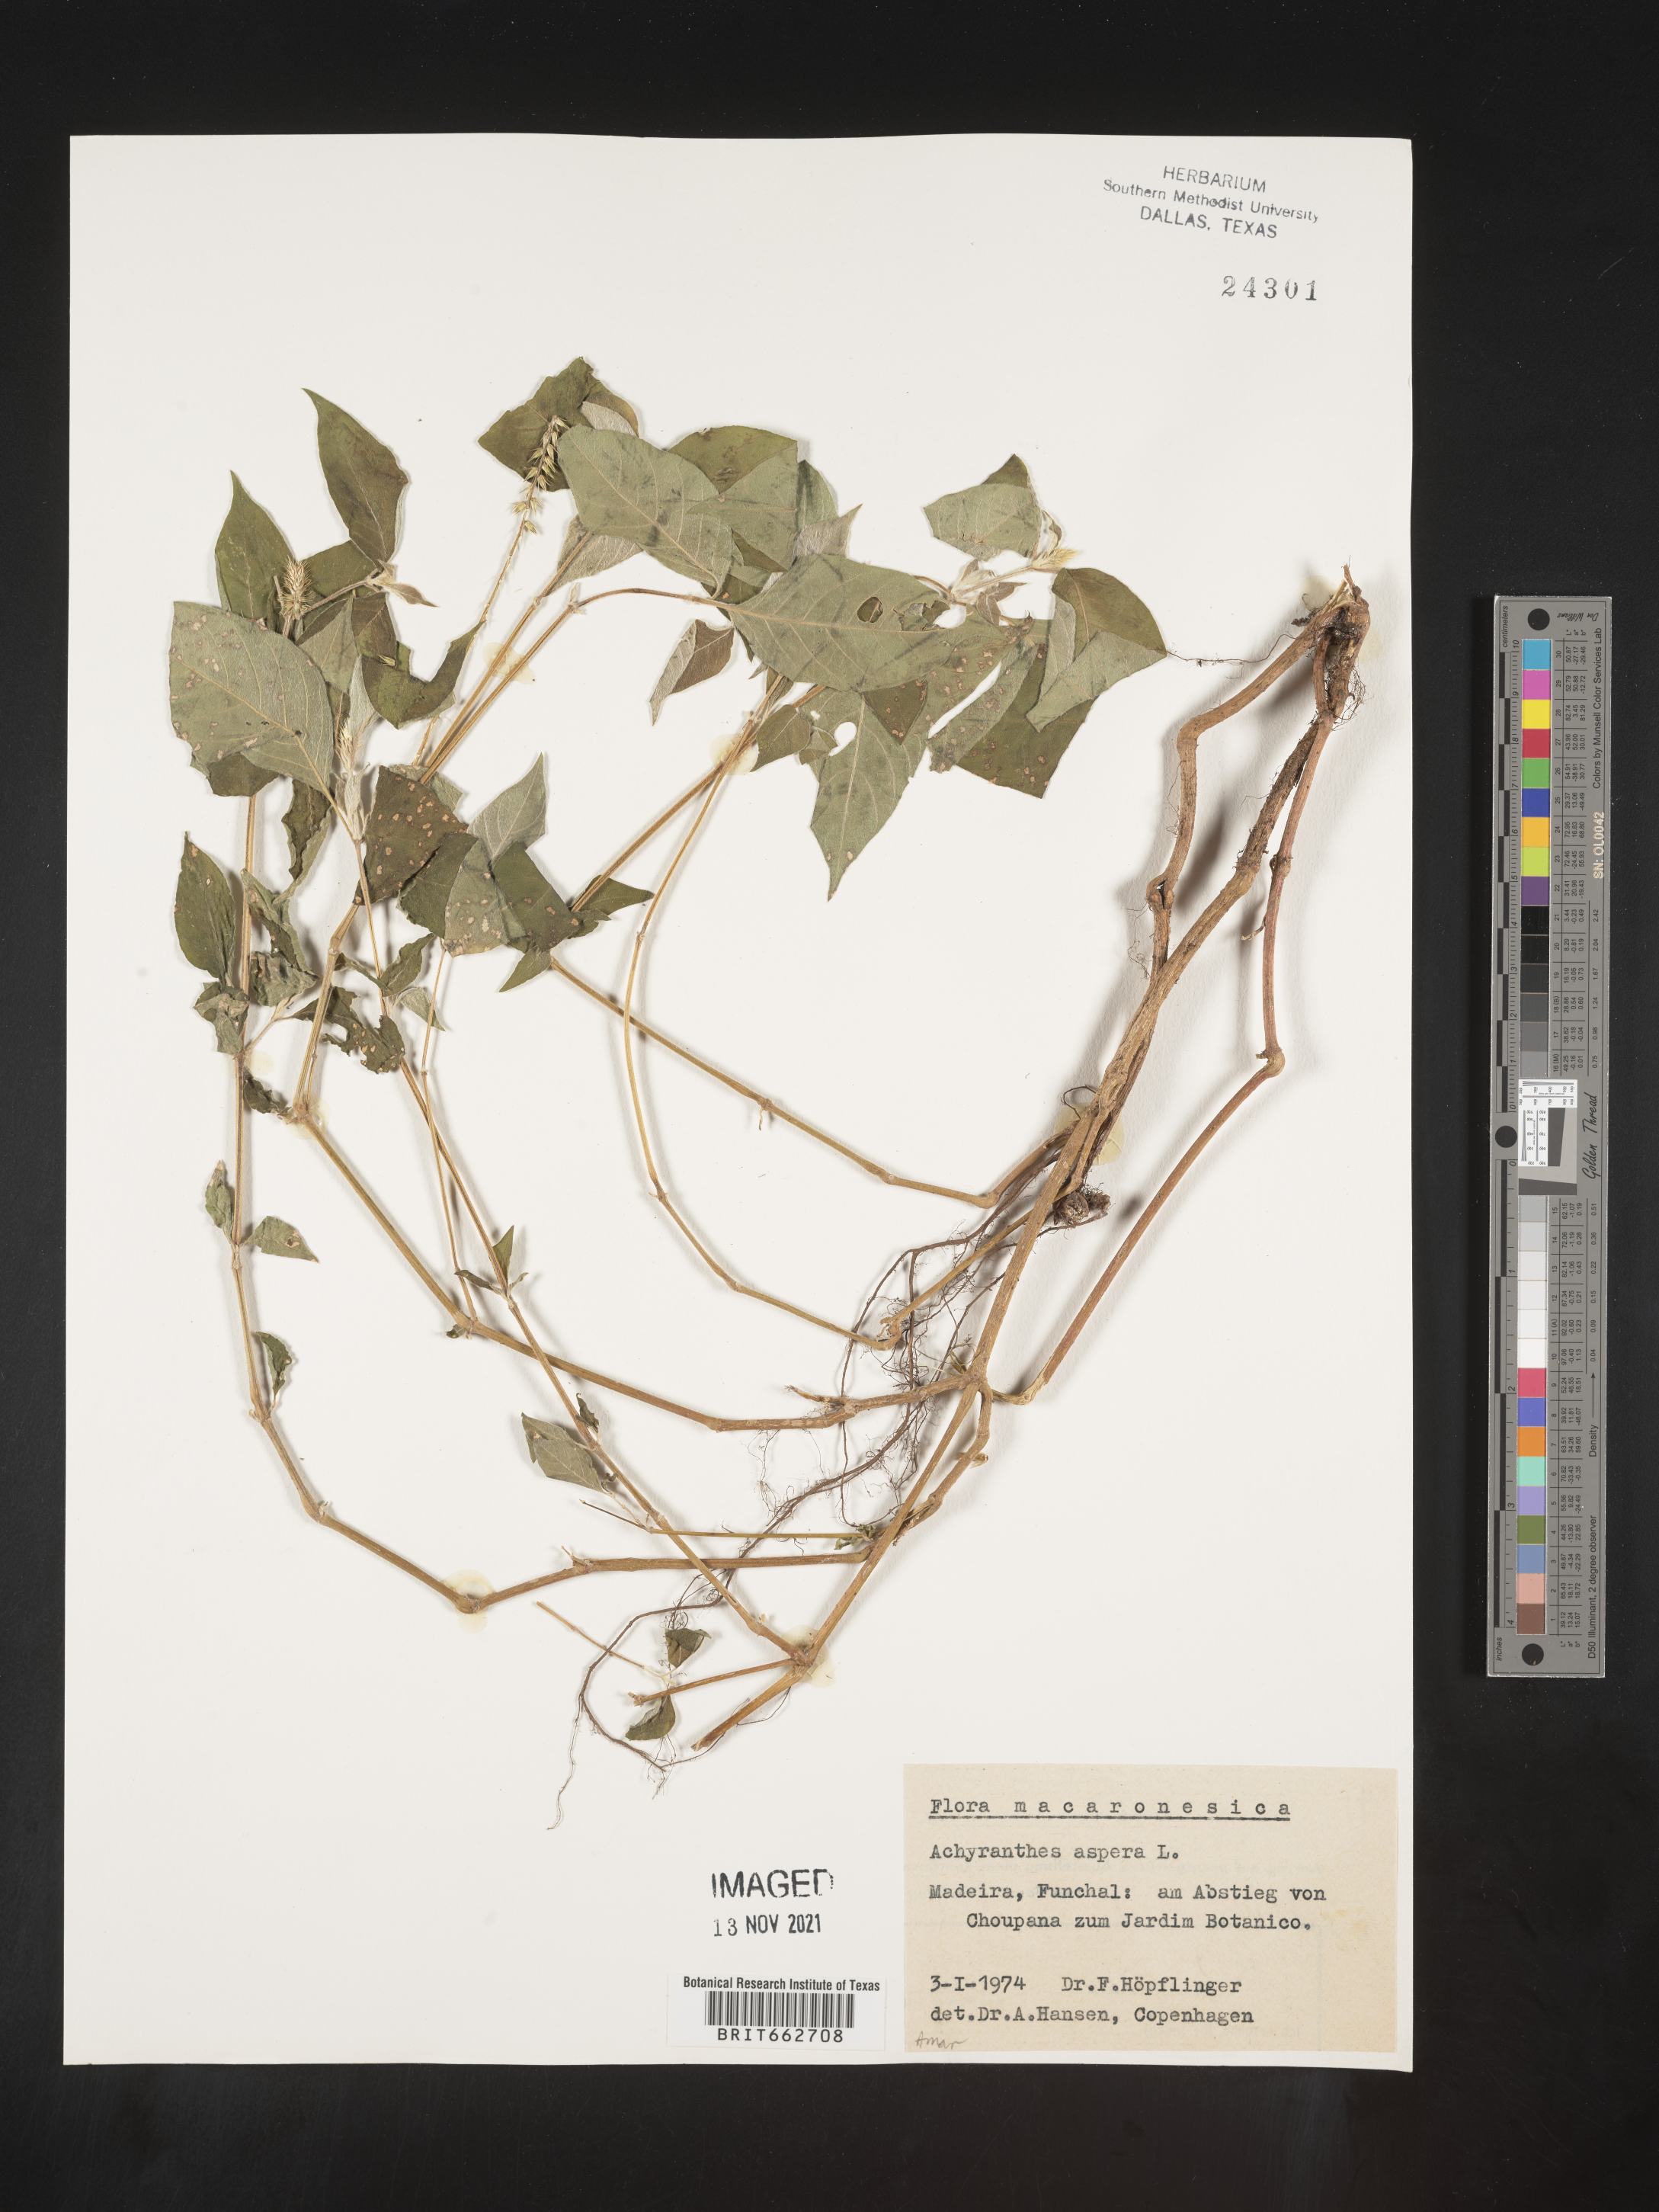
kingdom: Plantae
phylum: Tracheophyta
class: Magnoliopsida
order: Caryophyllales
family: Amaranthaceae
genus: Achyranthes
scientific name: Achyranthes
